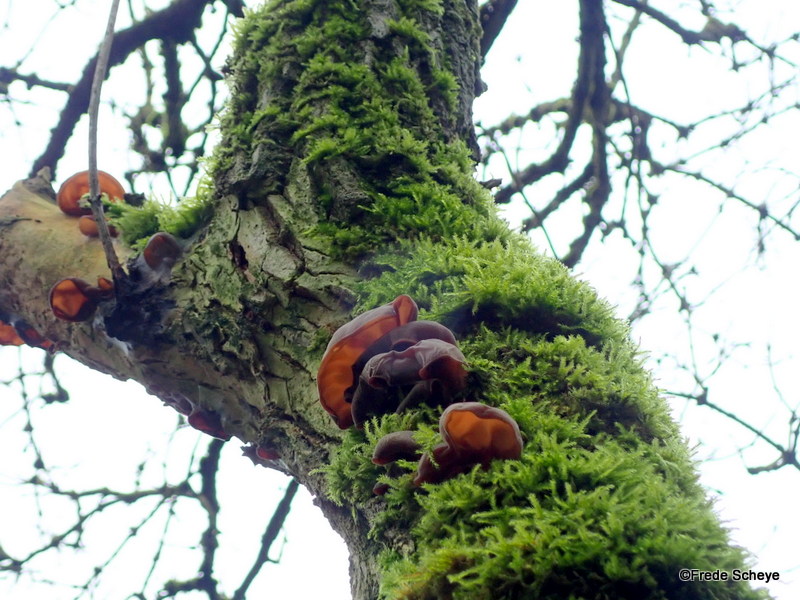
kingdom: Fungi
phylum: Basidiomycota
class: Agaricomycetes
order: Auriculariales
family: Auriculariaceae
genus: Auricularia
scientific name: Auricularia auricula-judae
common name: almindelig judasøre
